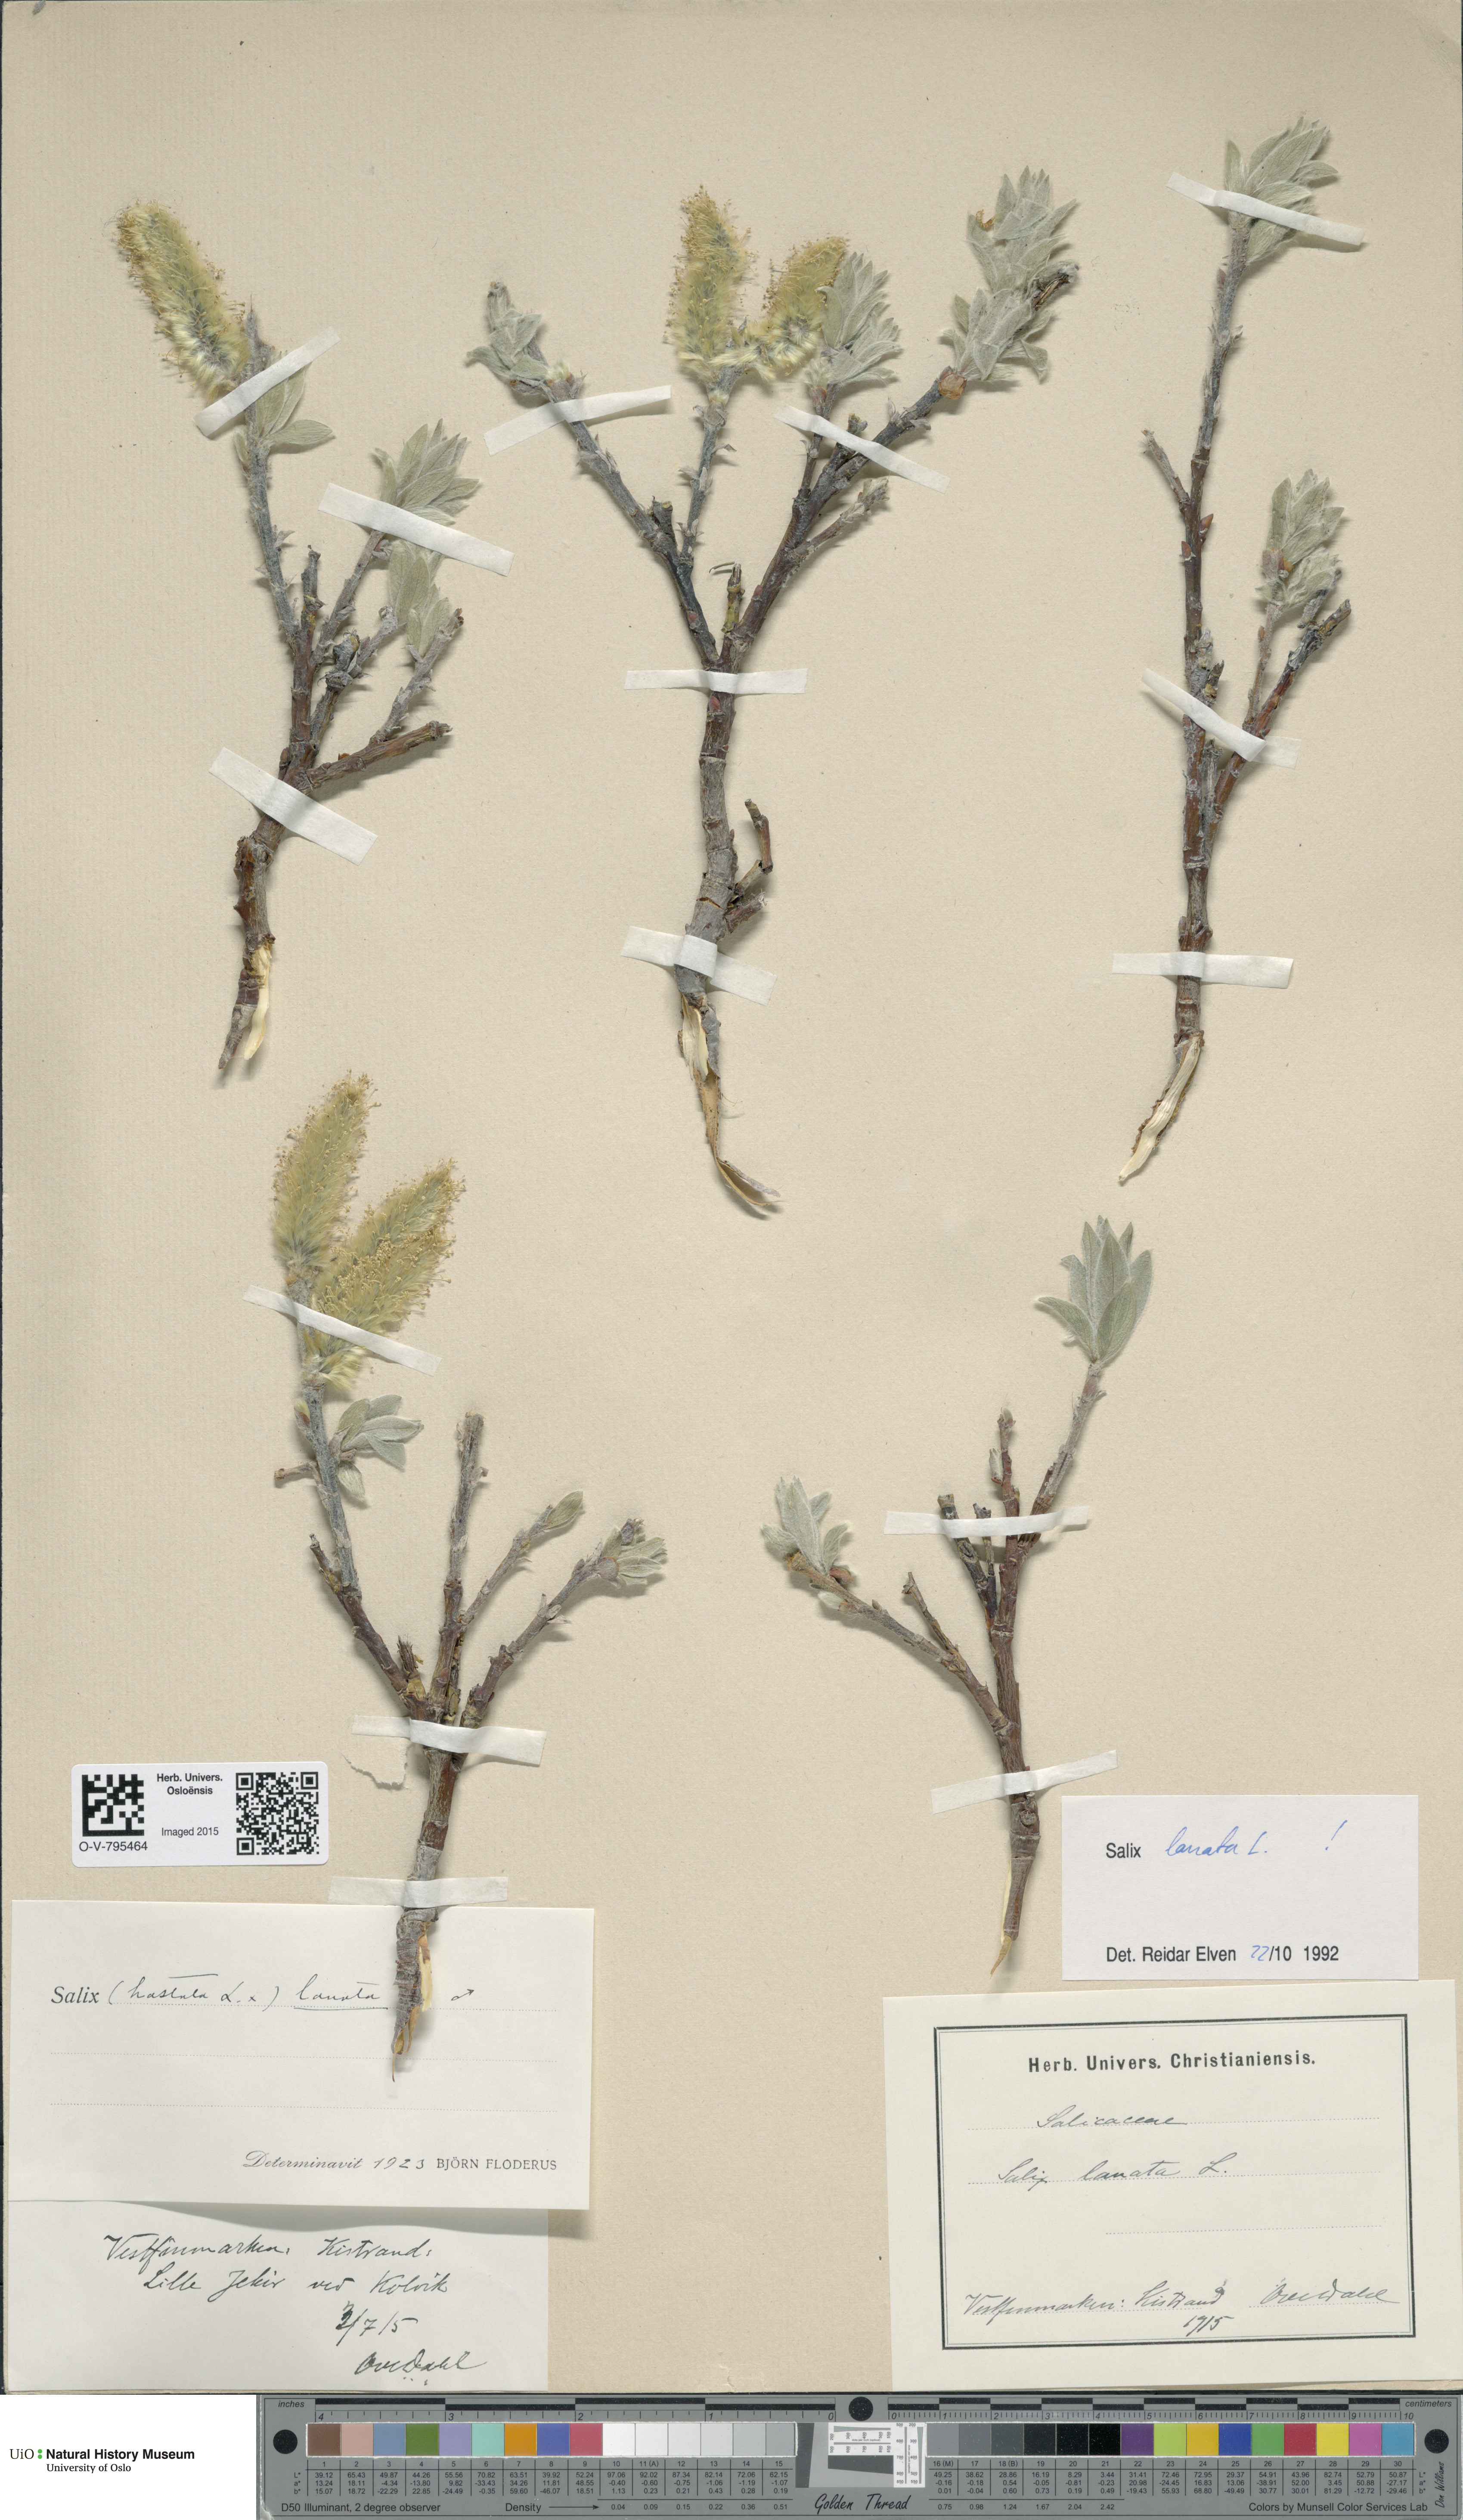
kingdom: Plantae
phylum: Tracheophyta
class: Magnoliopsida
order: Malpighiales
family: Salicaceae
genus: Salix
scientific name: Salix lanata
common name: Woolly willow
